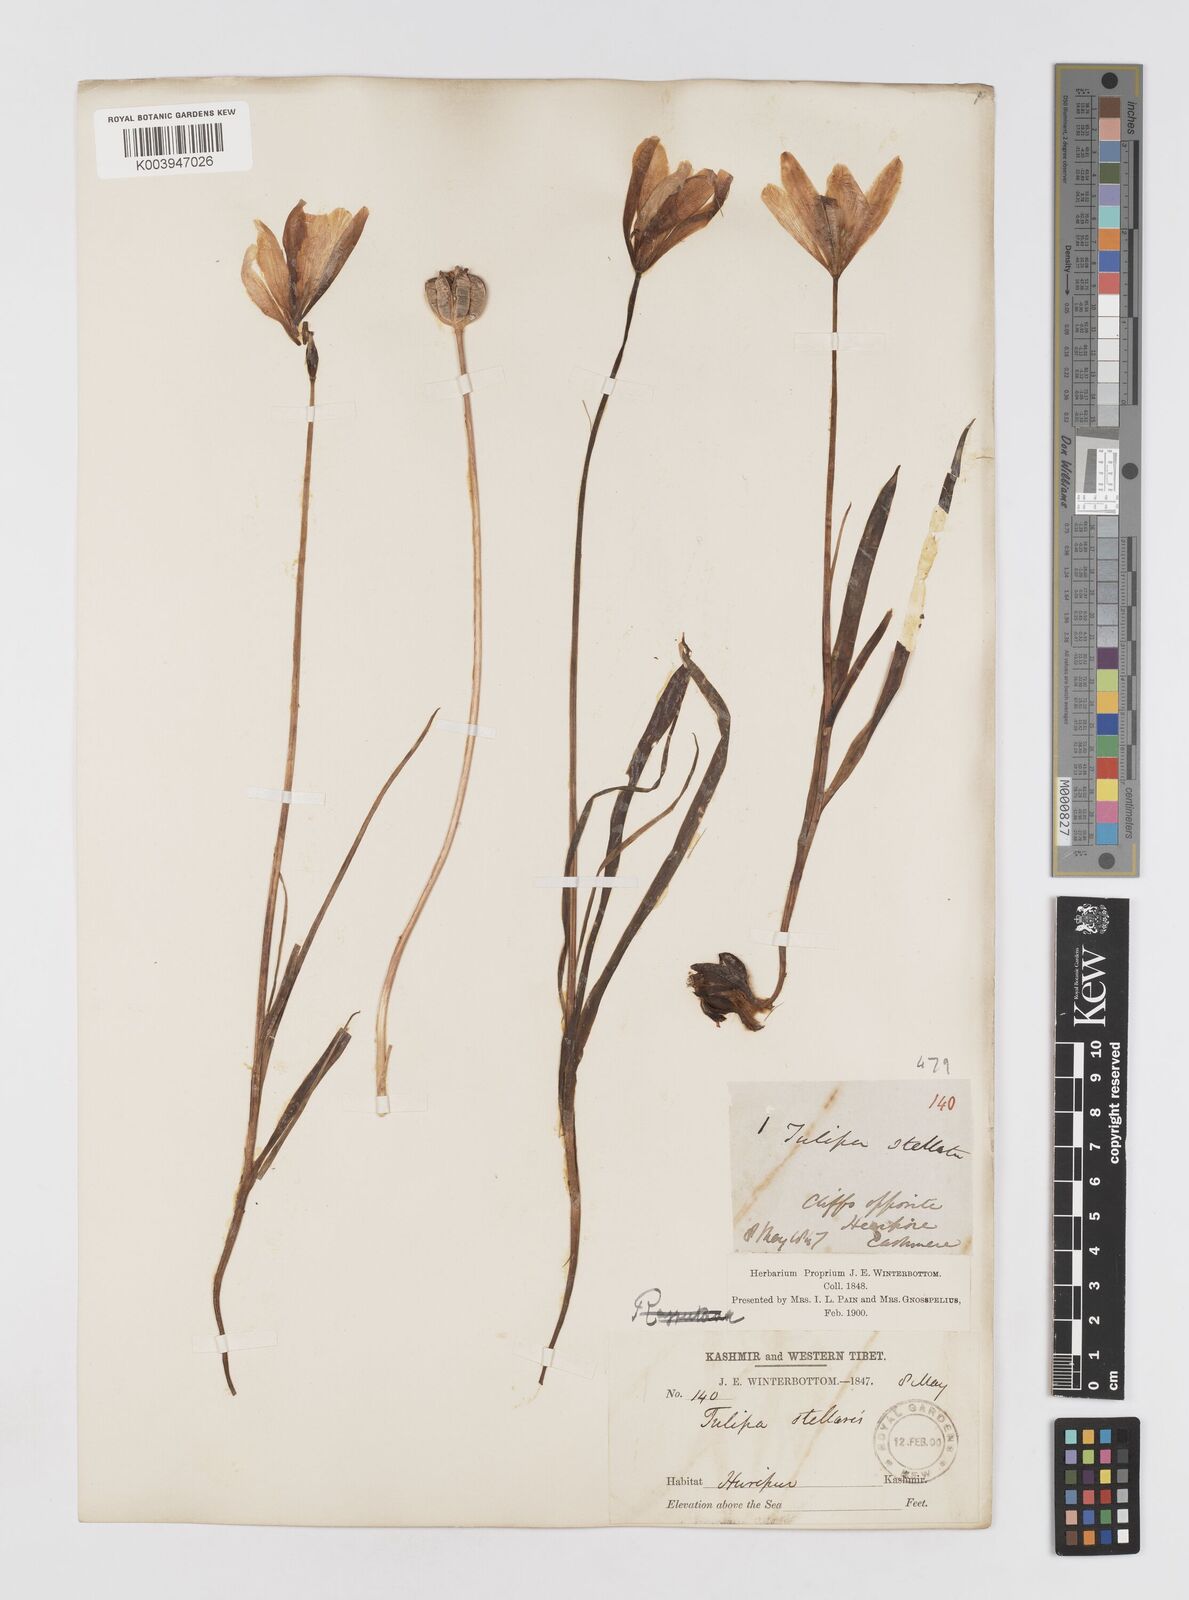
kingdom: Plantae
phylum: Tracheophyta
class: Liliopsida
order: Liliales
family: Liliaceae
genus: Tulipa
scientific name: Tulipa clusiana
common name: Lady tulip
